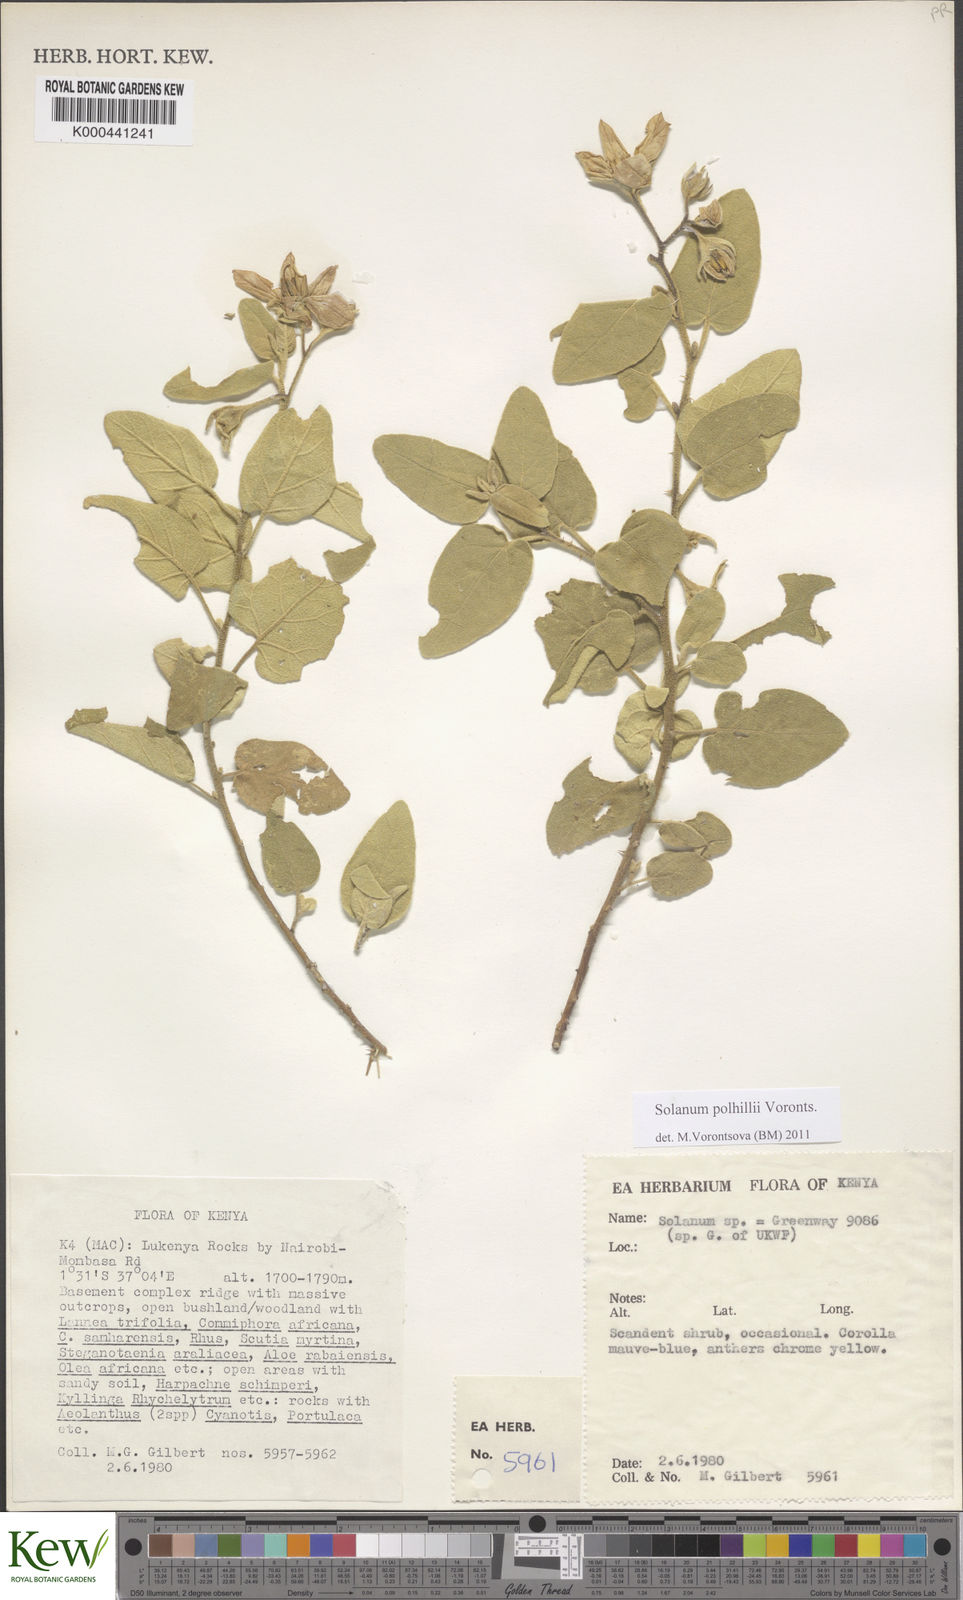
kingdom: Plantae
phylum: Tracheophyta
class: Magnoliopsida
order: Solanales
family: Solanaceae
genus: Solanum
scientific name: Solanum polhillii
